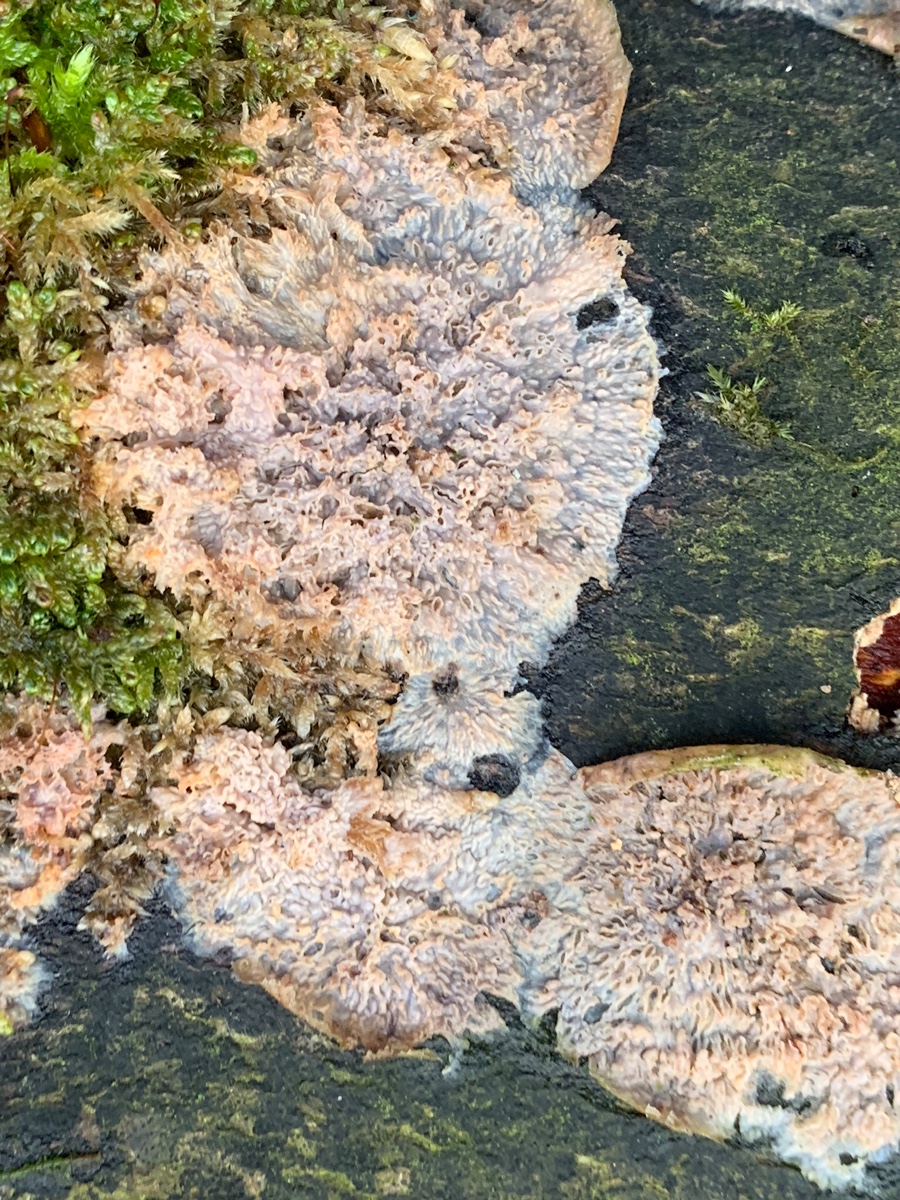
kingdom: Fungi
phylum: Basidiomycota
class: Agaricomycetes
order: Polyporales
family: Meruliaceae
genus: Phlebia
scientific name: Phlebia radiata
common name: stråle-åresvamp
